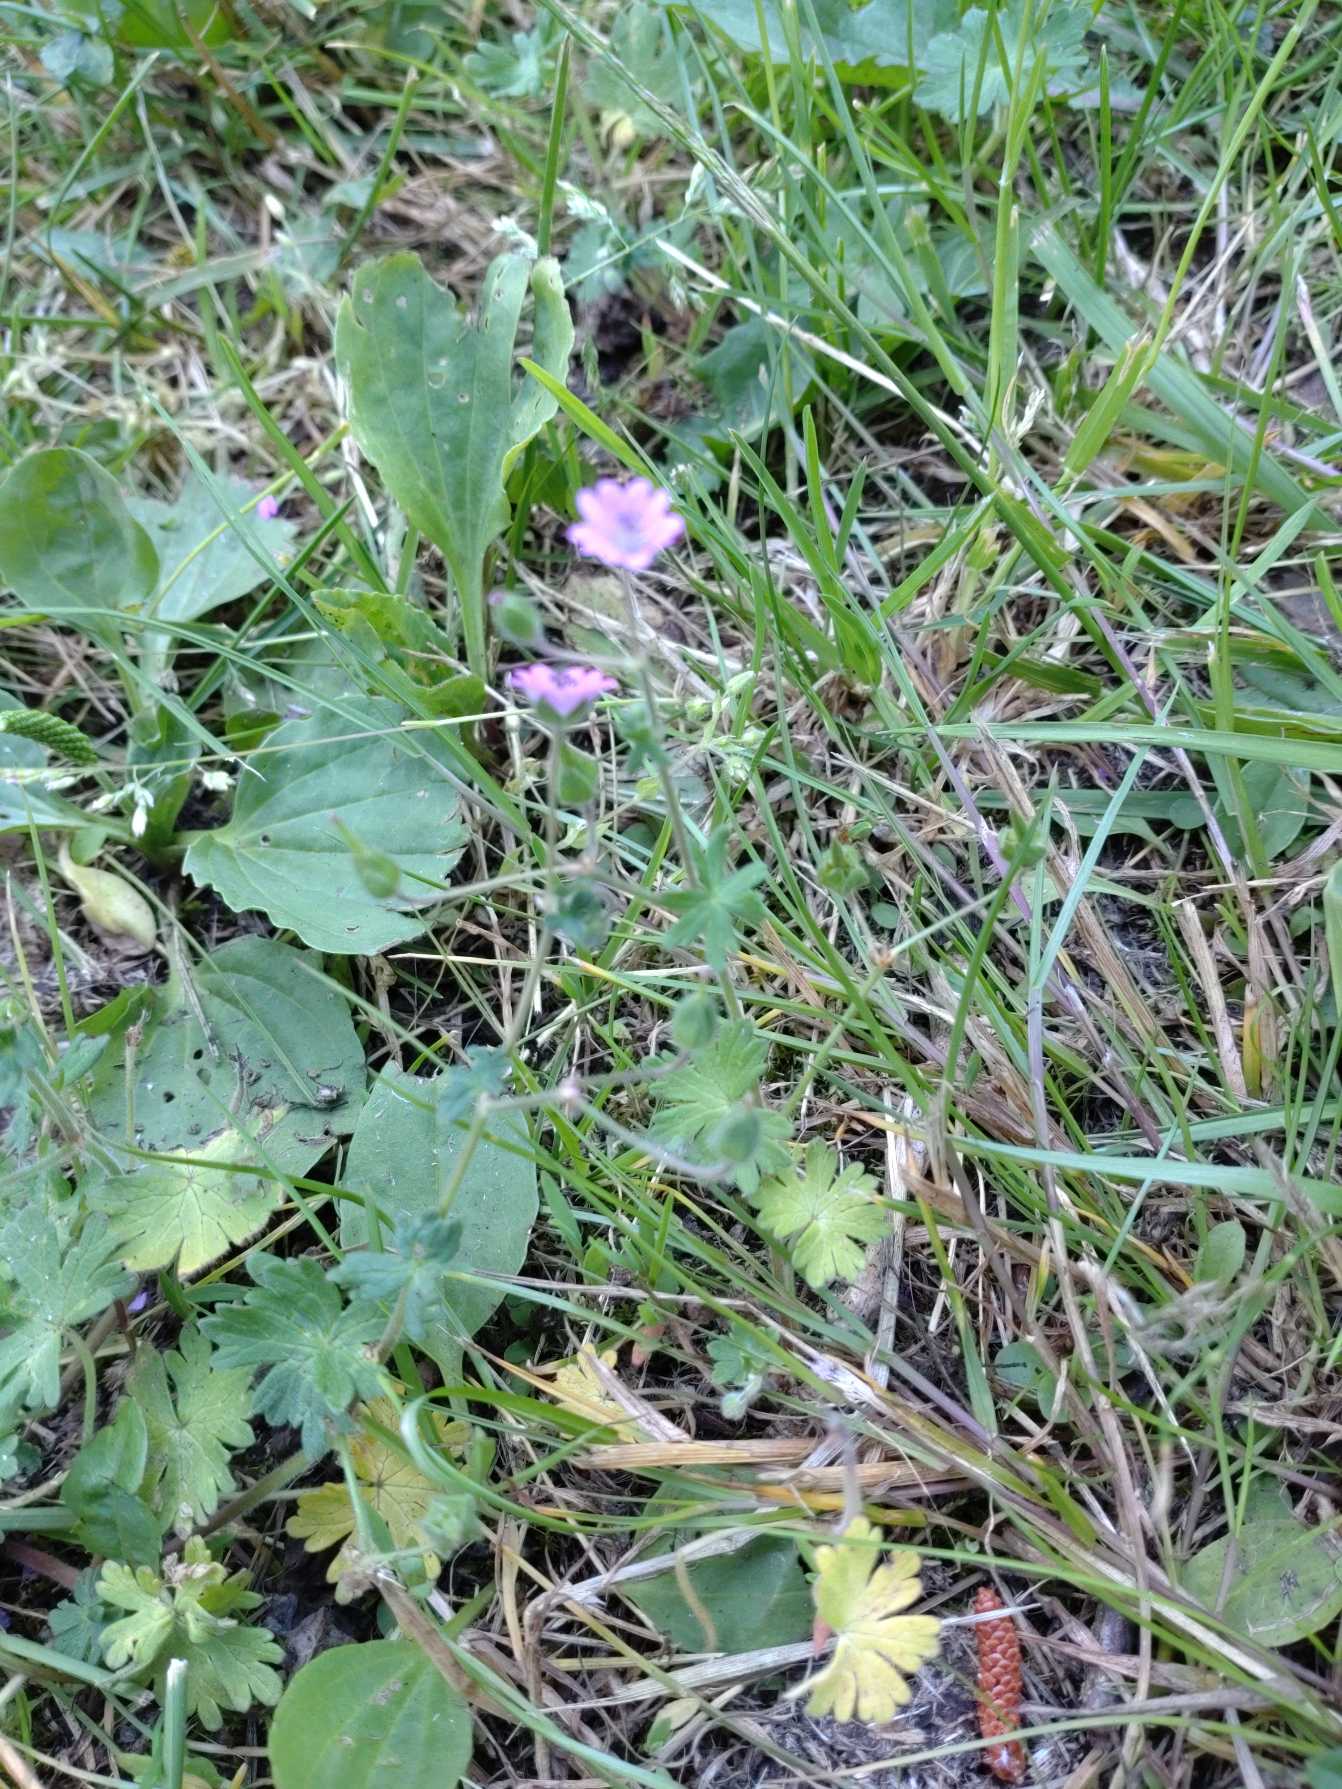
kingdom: Plantae
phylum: Tracheophyta
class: Magnoliopsida
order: Geraniales
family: Geraniaceae
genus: Geranium
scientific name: Geranium molle
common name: Blød storkenæb
